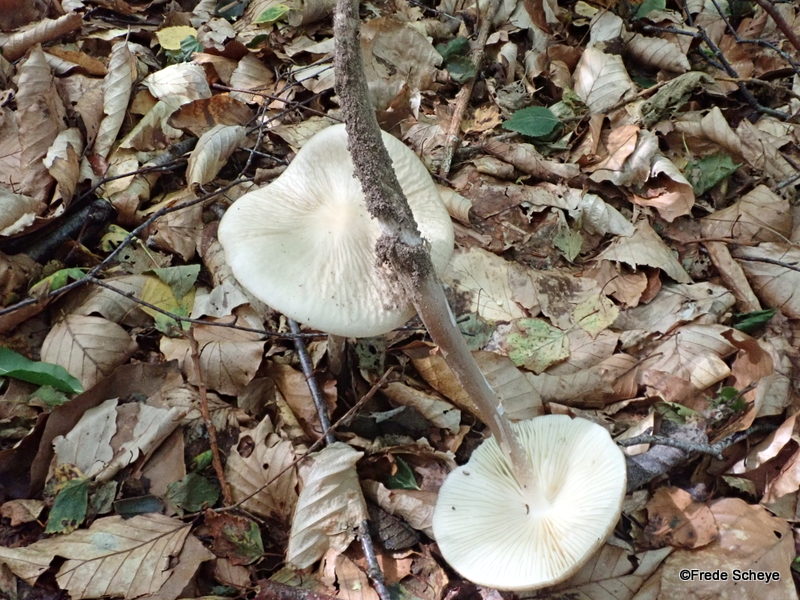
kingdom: Fungi
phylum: Basidiomycota
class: Agaricomycetes
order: Agaricales
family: Physalacriaceae
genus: Hymenopellis
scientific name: Hymenopellis radicata
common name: almindelig pælerodshat
